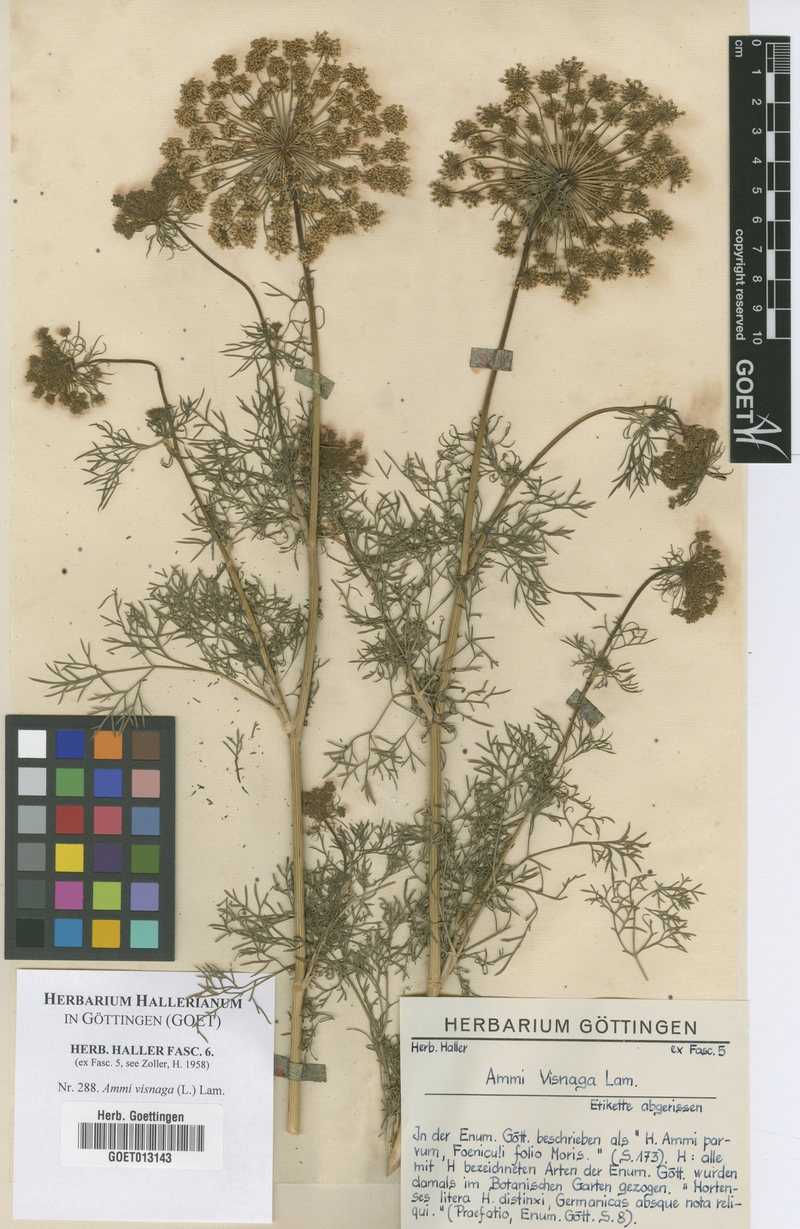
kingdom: Plantae
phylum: Tracheophyta
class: Magnoliopsida
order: Apiales
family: Apiaceae
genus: Visnaga
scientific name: Visnaga daucoides
